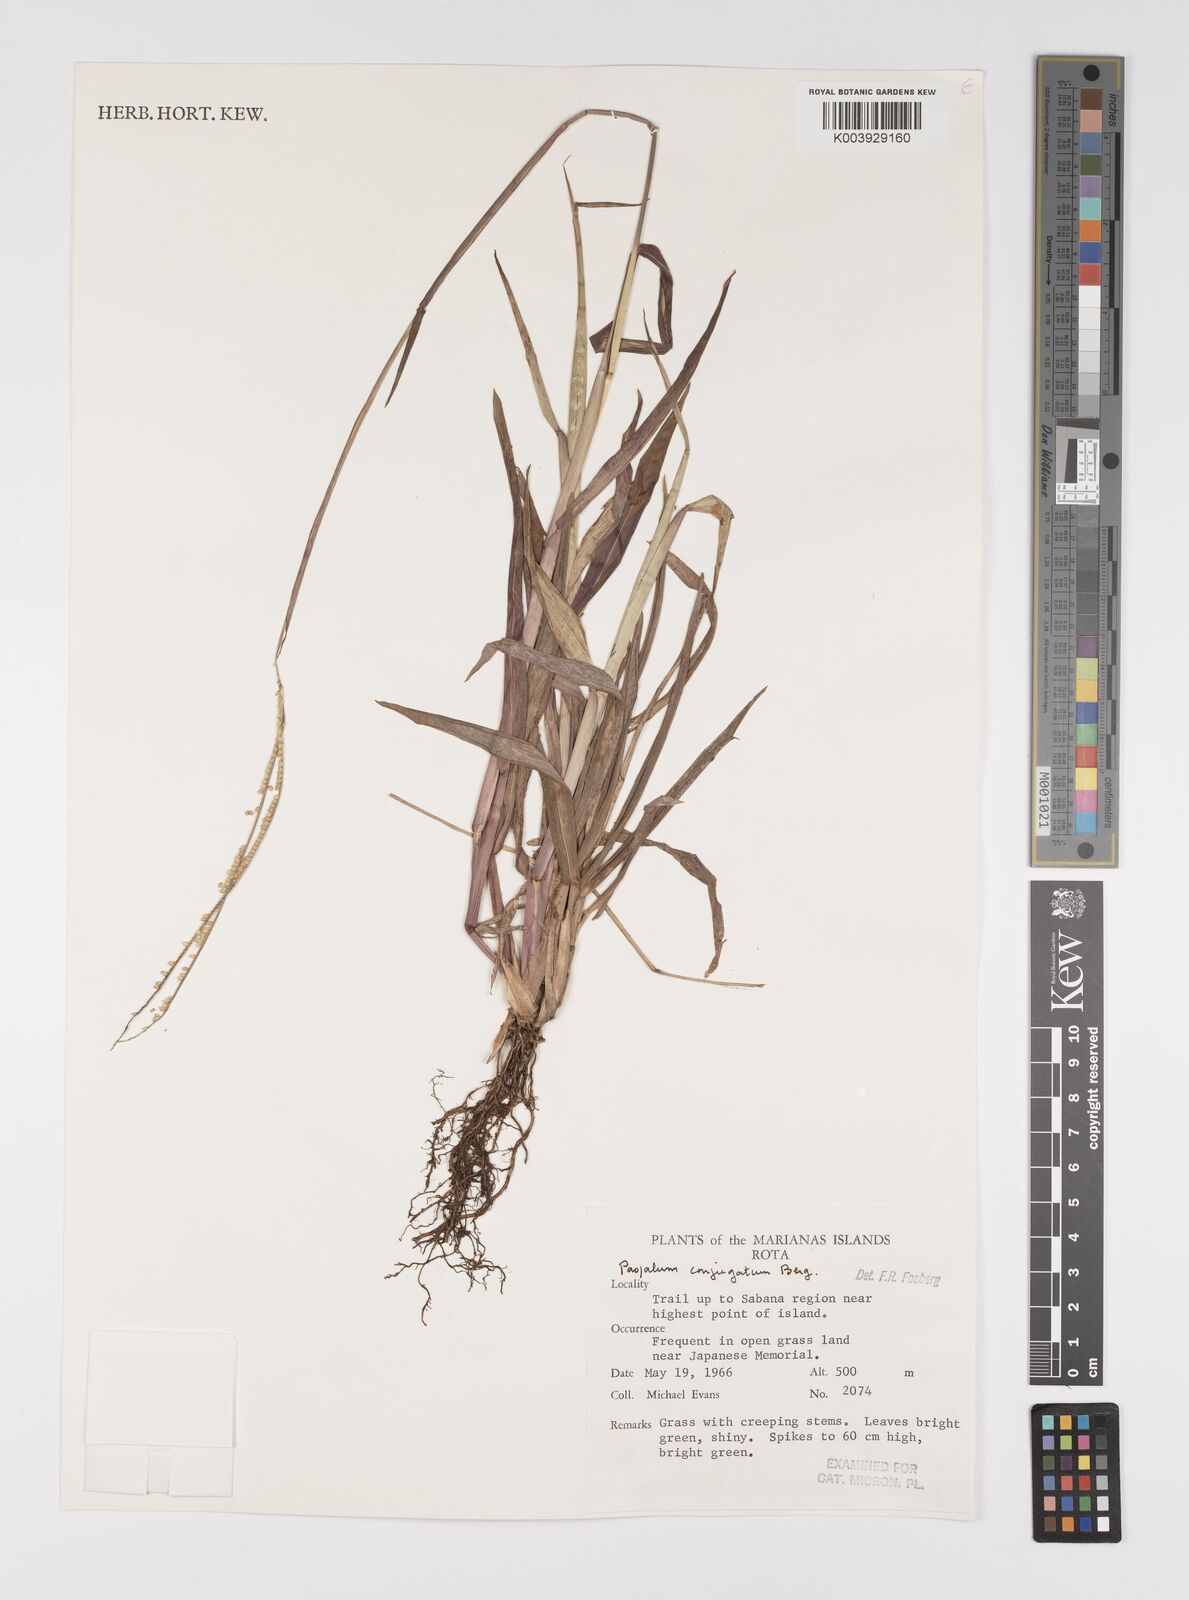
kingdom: Plantae
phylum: Tracheophyta
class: Liliopsida
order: Poales
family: Poaceae
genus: Paspalum
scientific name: Paspalum conjugatum
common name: Hilograss
